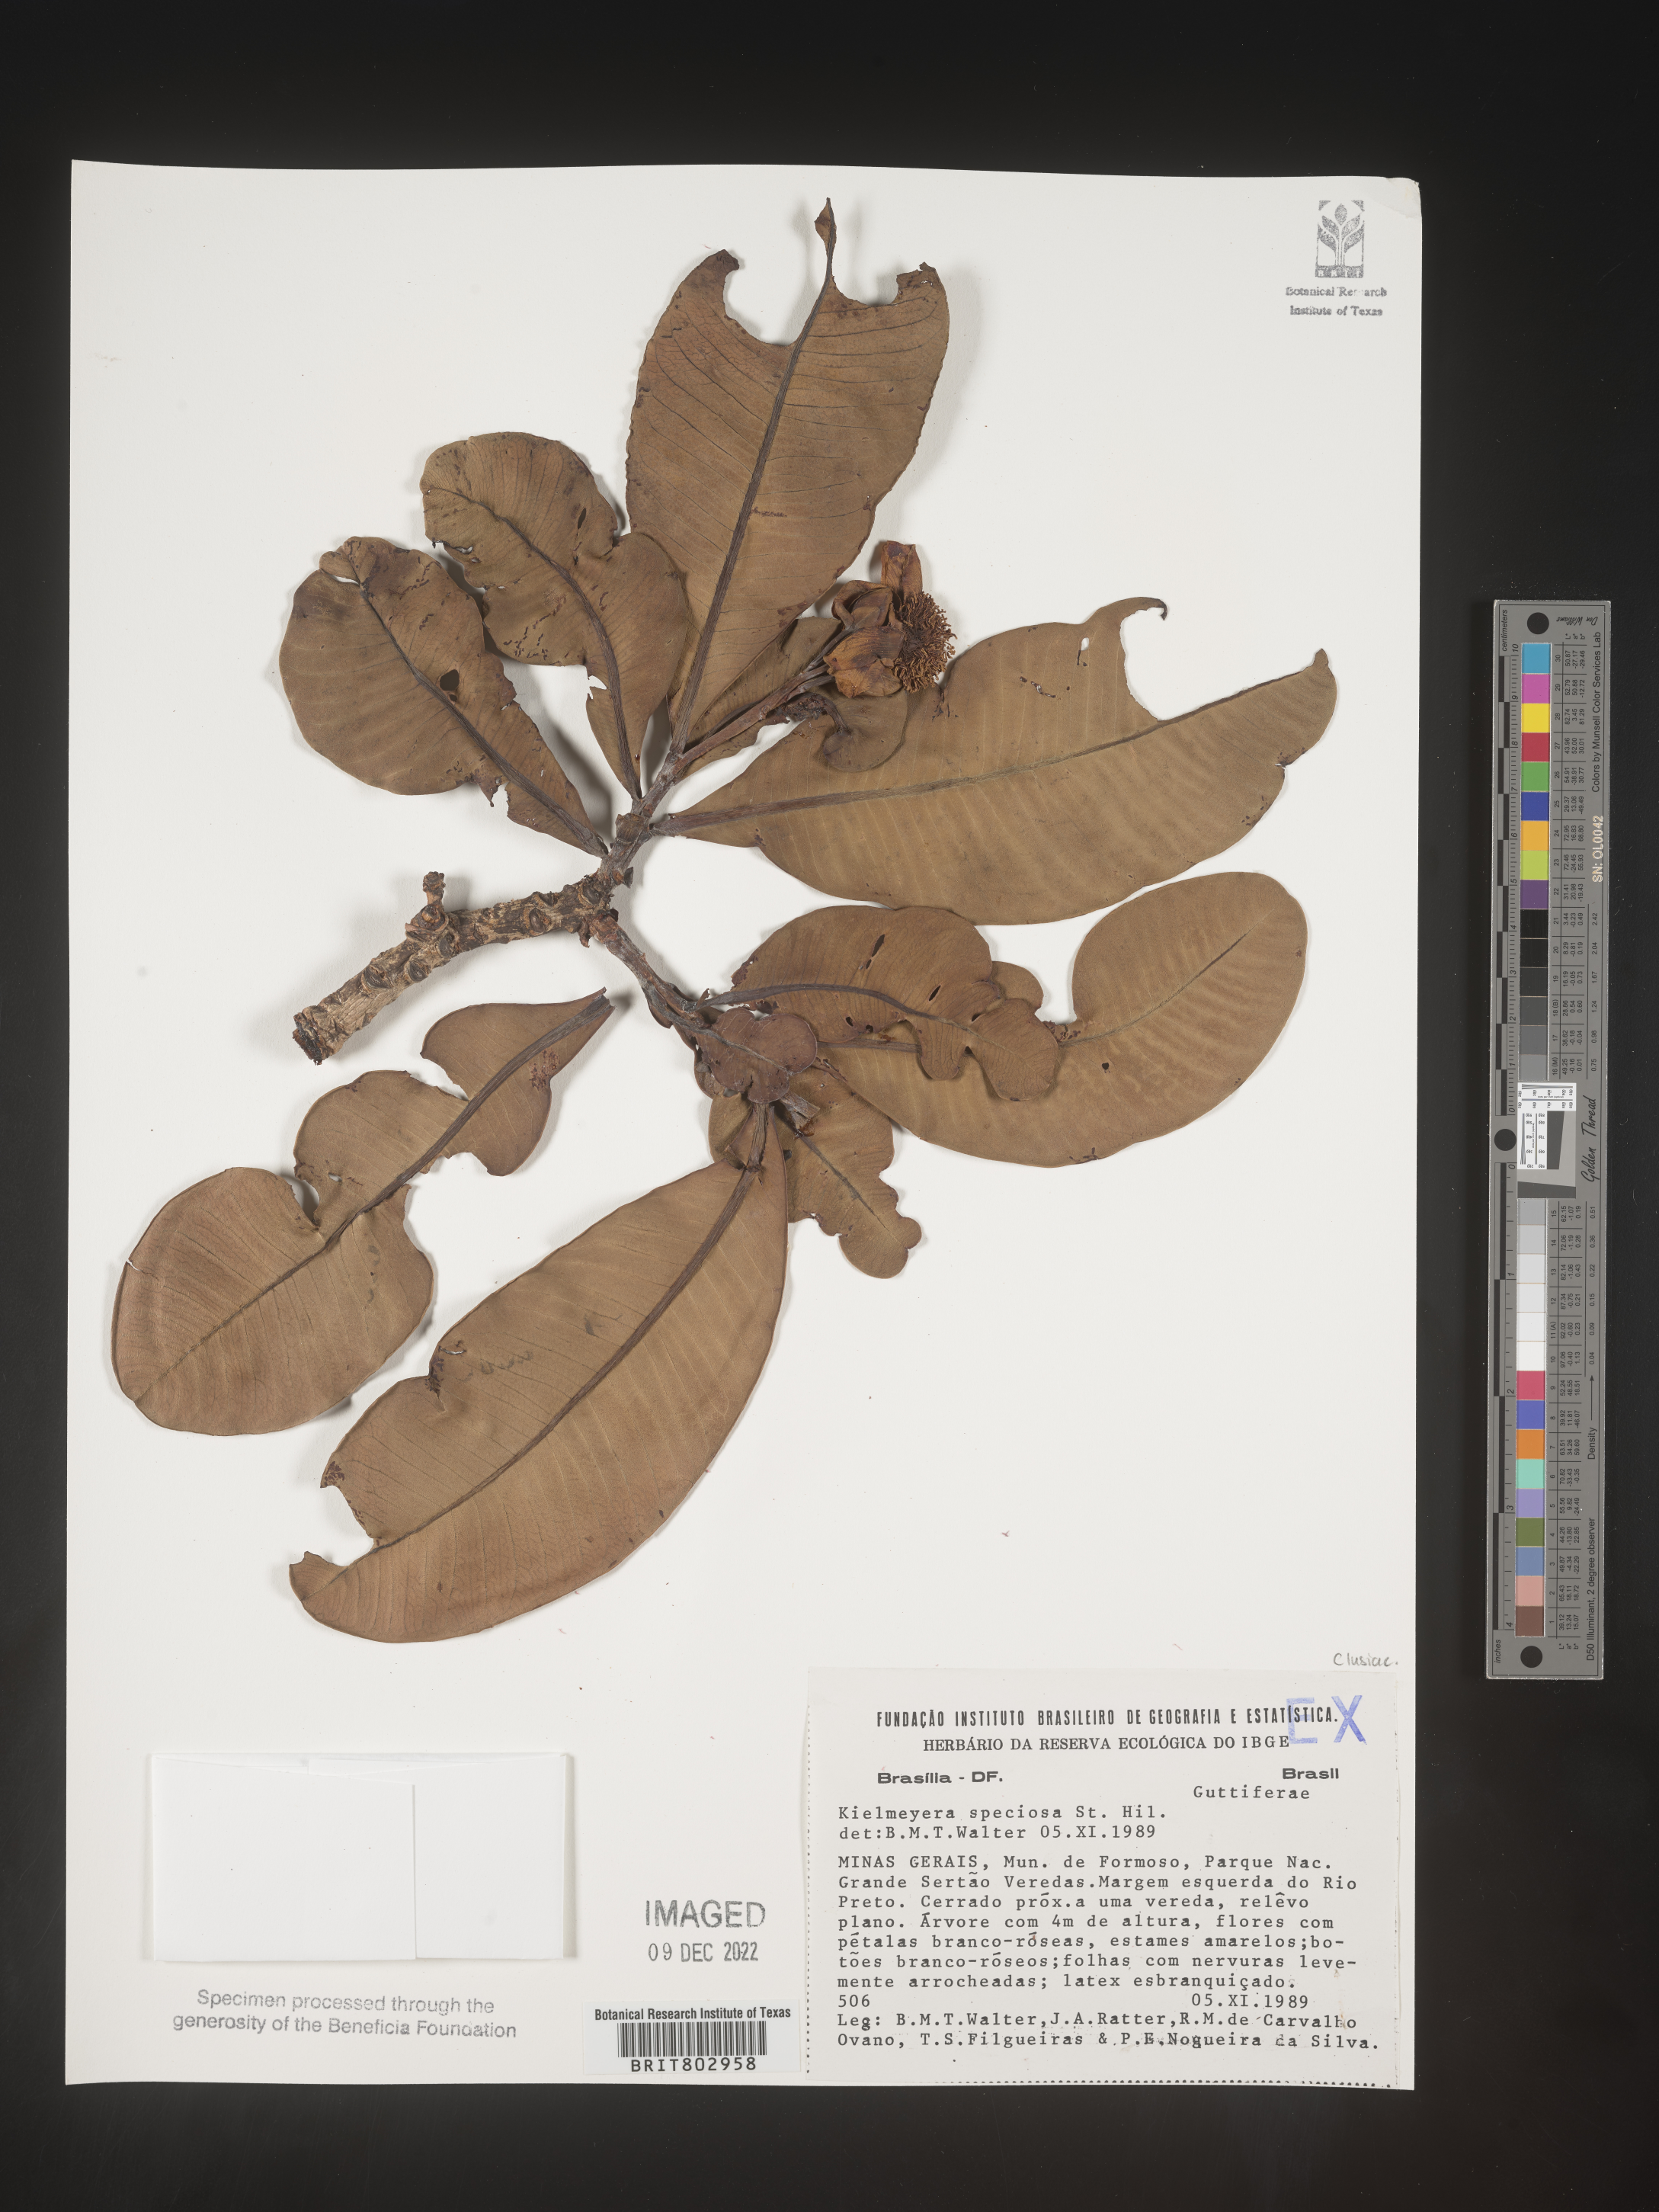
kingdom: Plantae
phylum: Tracheophyta
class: Magnoliopsida
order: Malpighiales
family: Calophyllaceae
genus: Kielmeyera
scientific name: Kielmeyera
